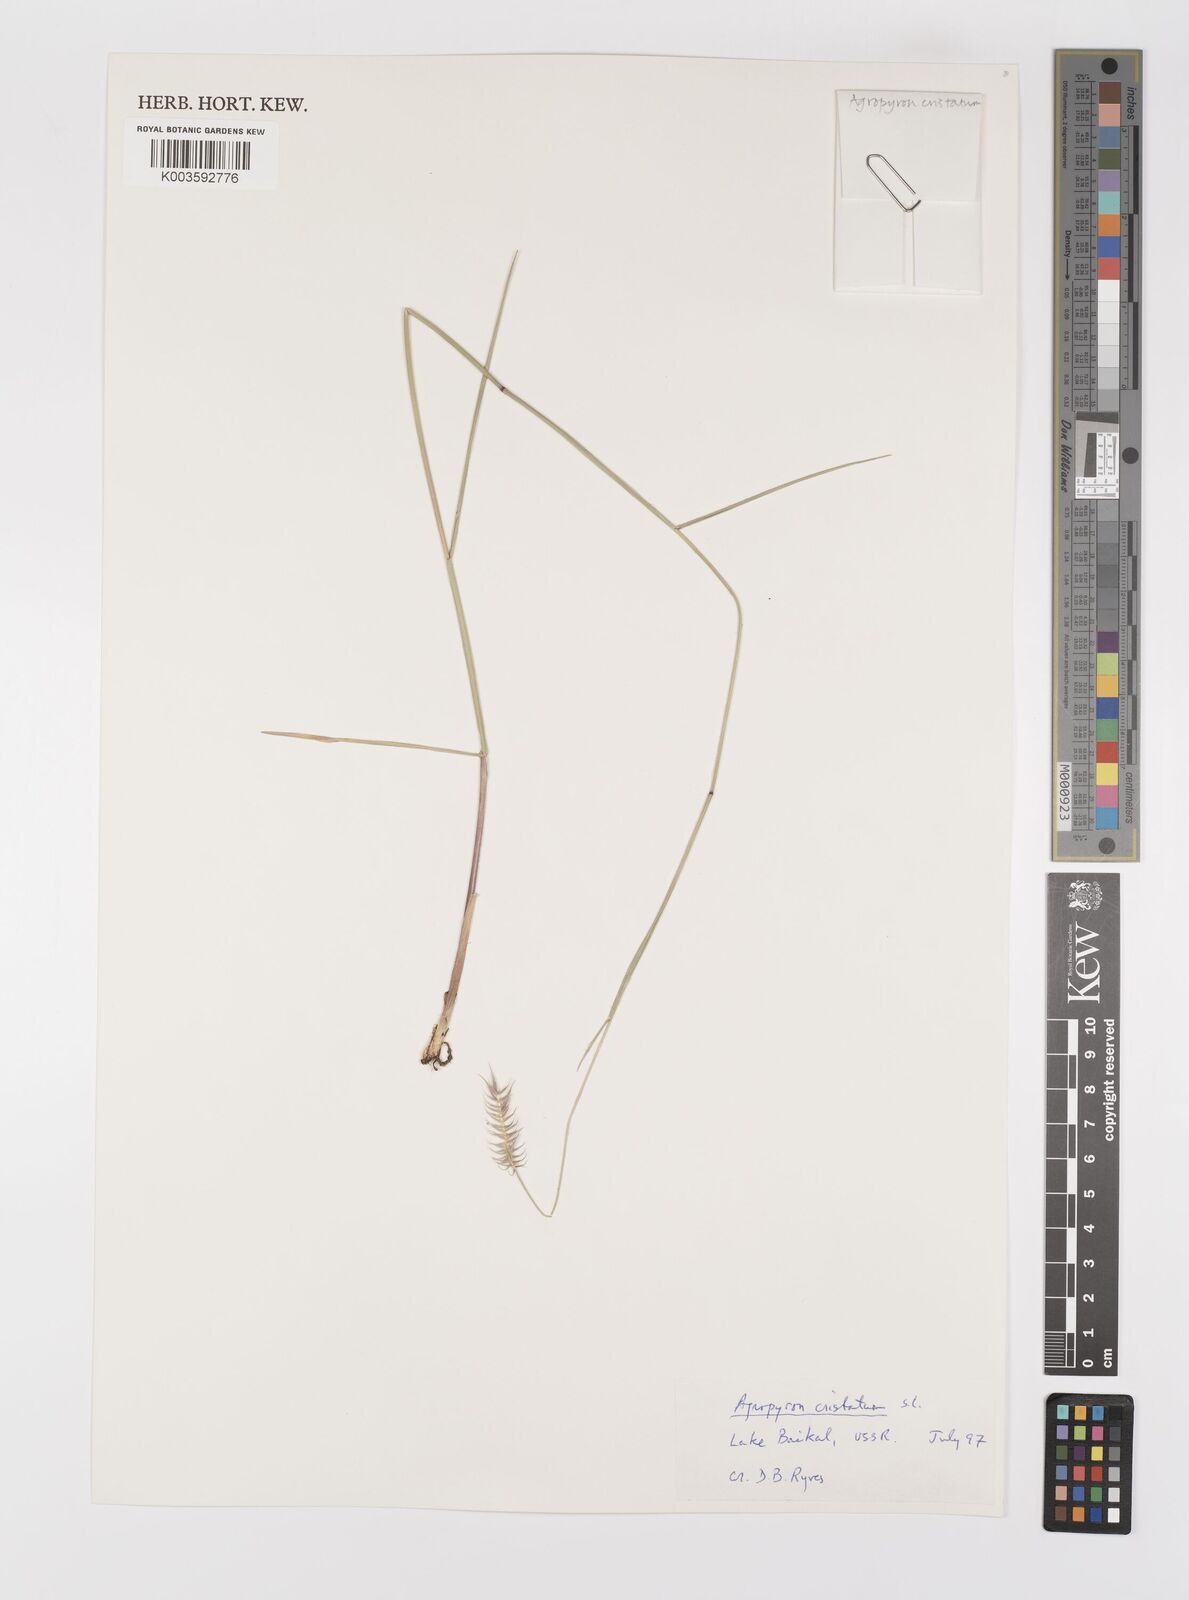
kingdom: Plantae
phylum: Tracheophyta
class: Liliopsida
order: Poales
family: Poaceae
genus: Agropyron
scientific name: Agropyron cristatum
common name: Crested wheatgrass
